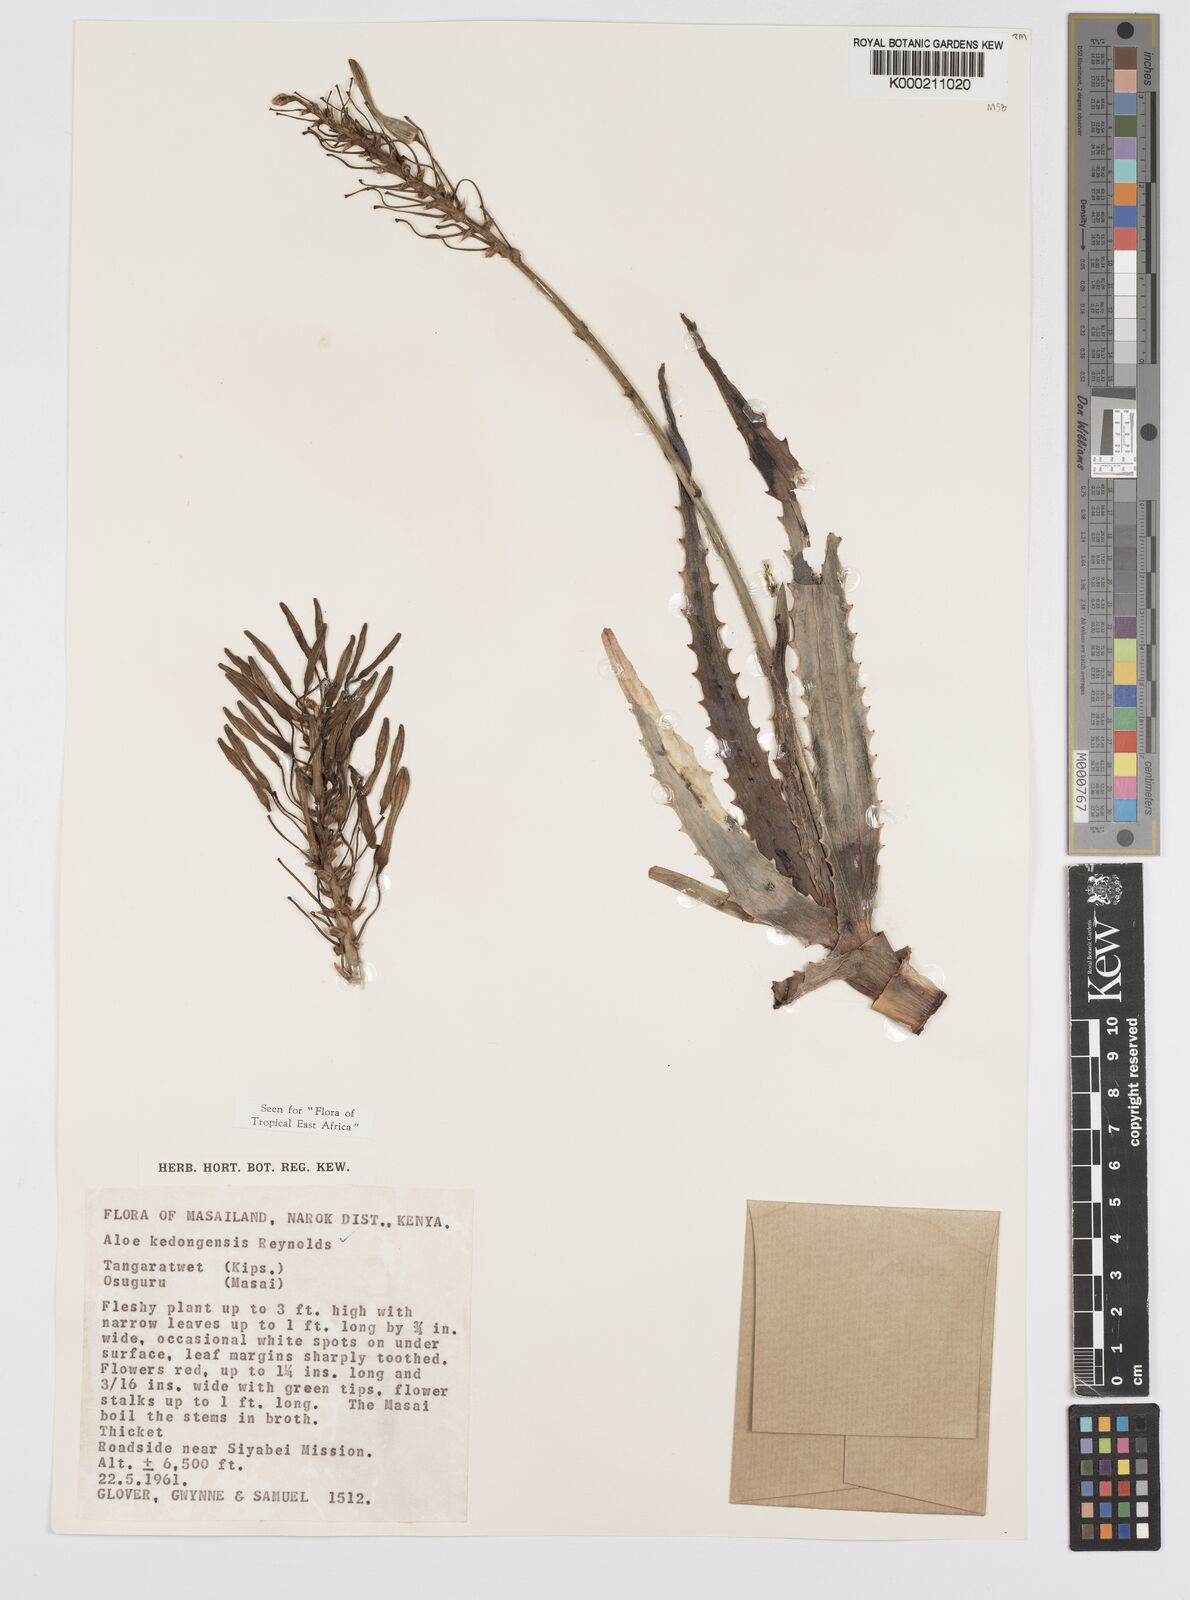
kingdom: Plantae
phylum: Tracheophyta
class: Liliopsida
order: Asparagales
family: Asphodelaceae
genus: Aloe
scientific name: Aloe kedongensis
